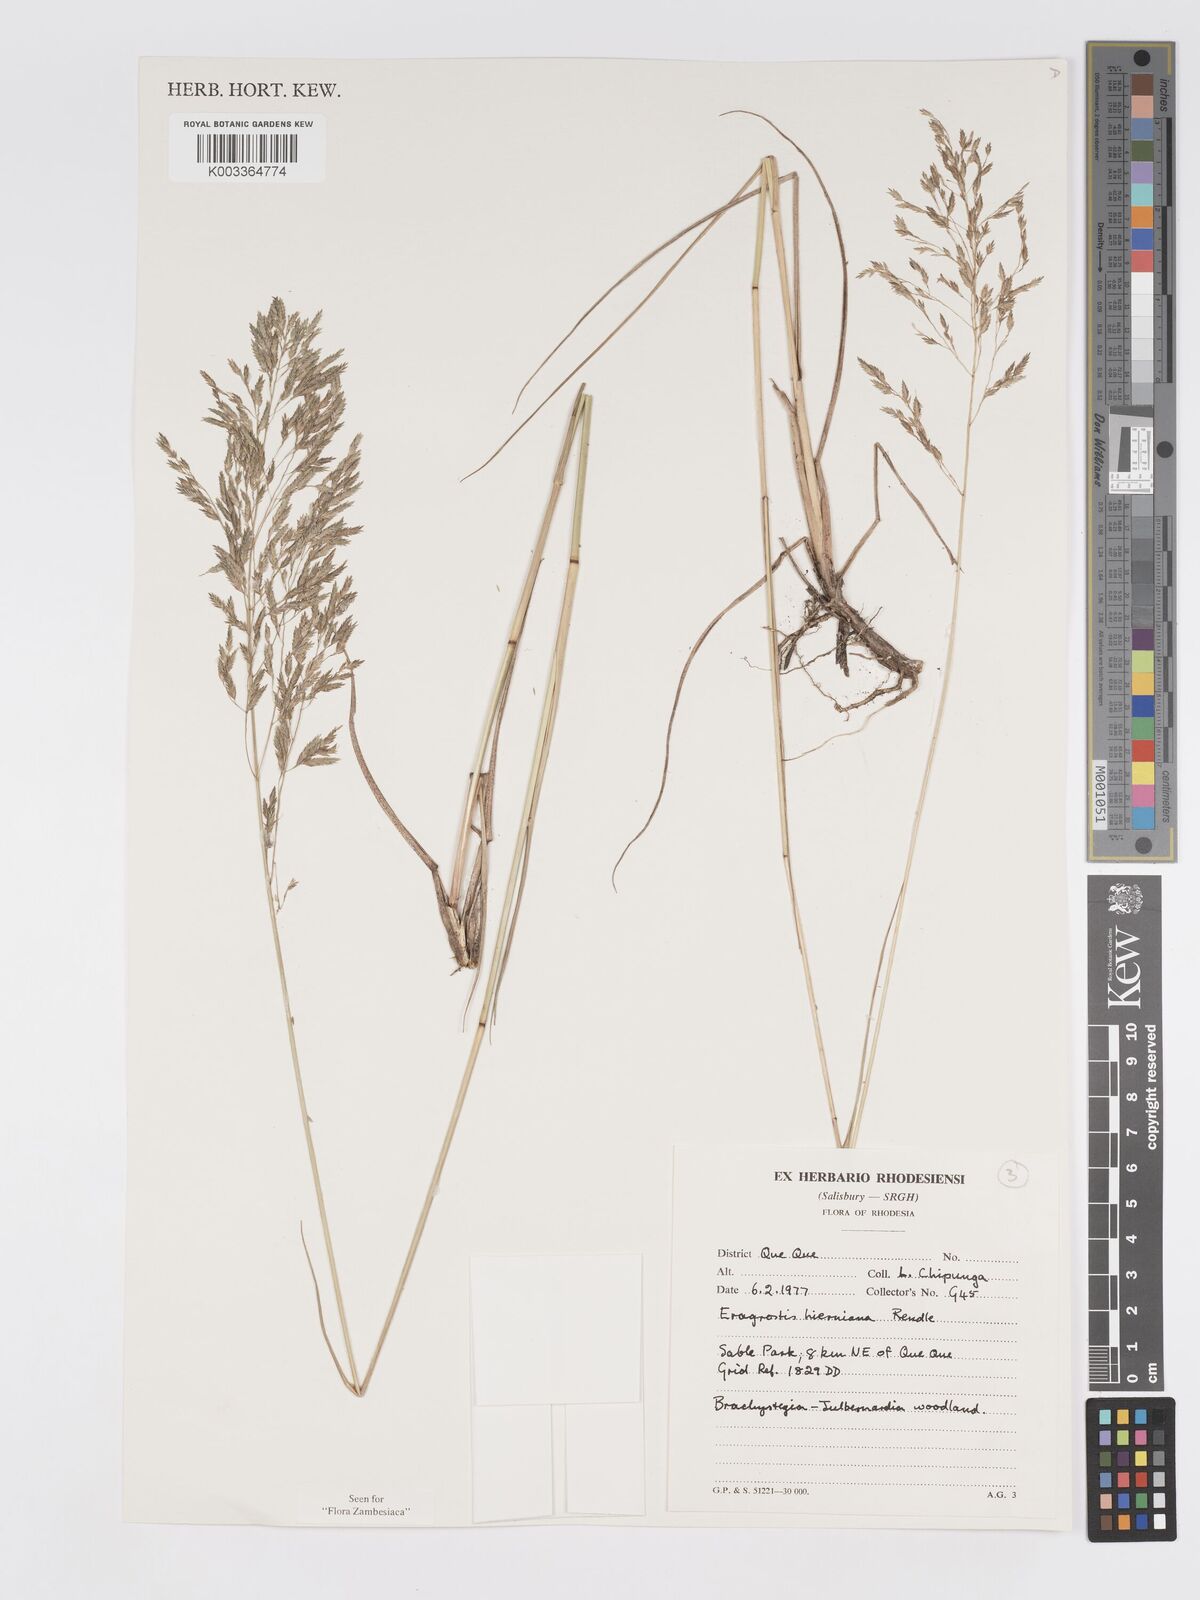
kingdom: Plantae
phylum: Tracheophyta
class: Liliopsida
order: Poales
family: Poaceae
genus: Eragrostis
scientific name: Eragrostis hierniana
